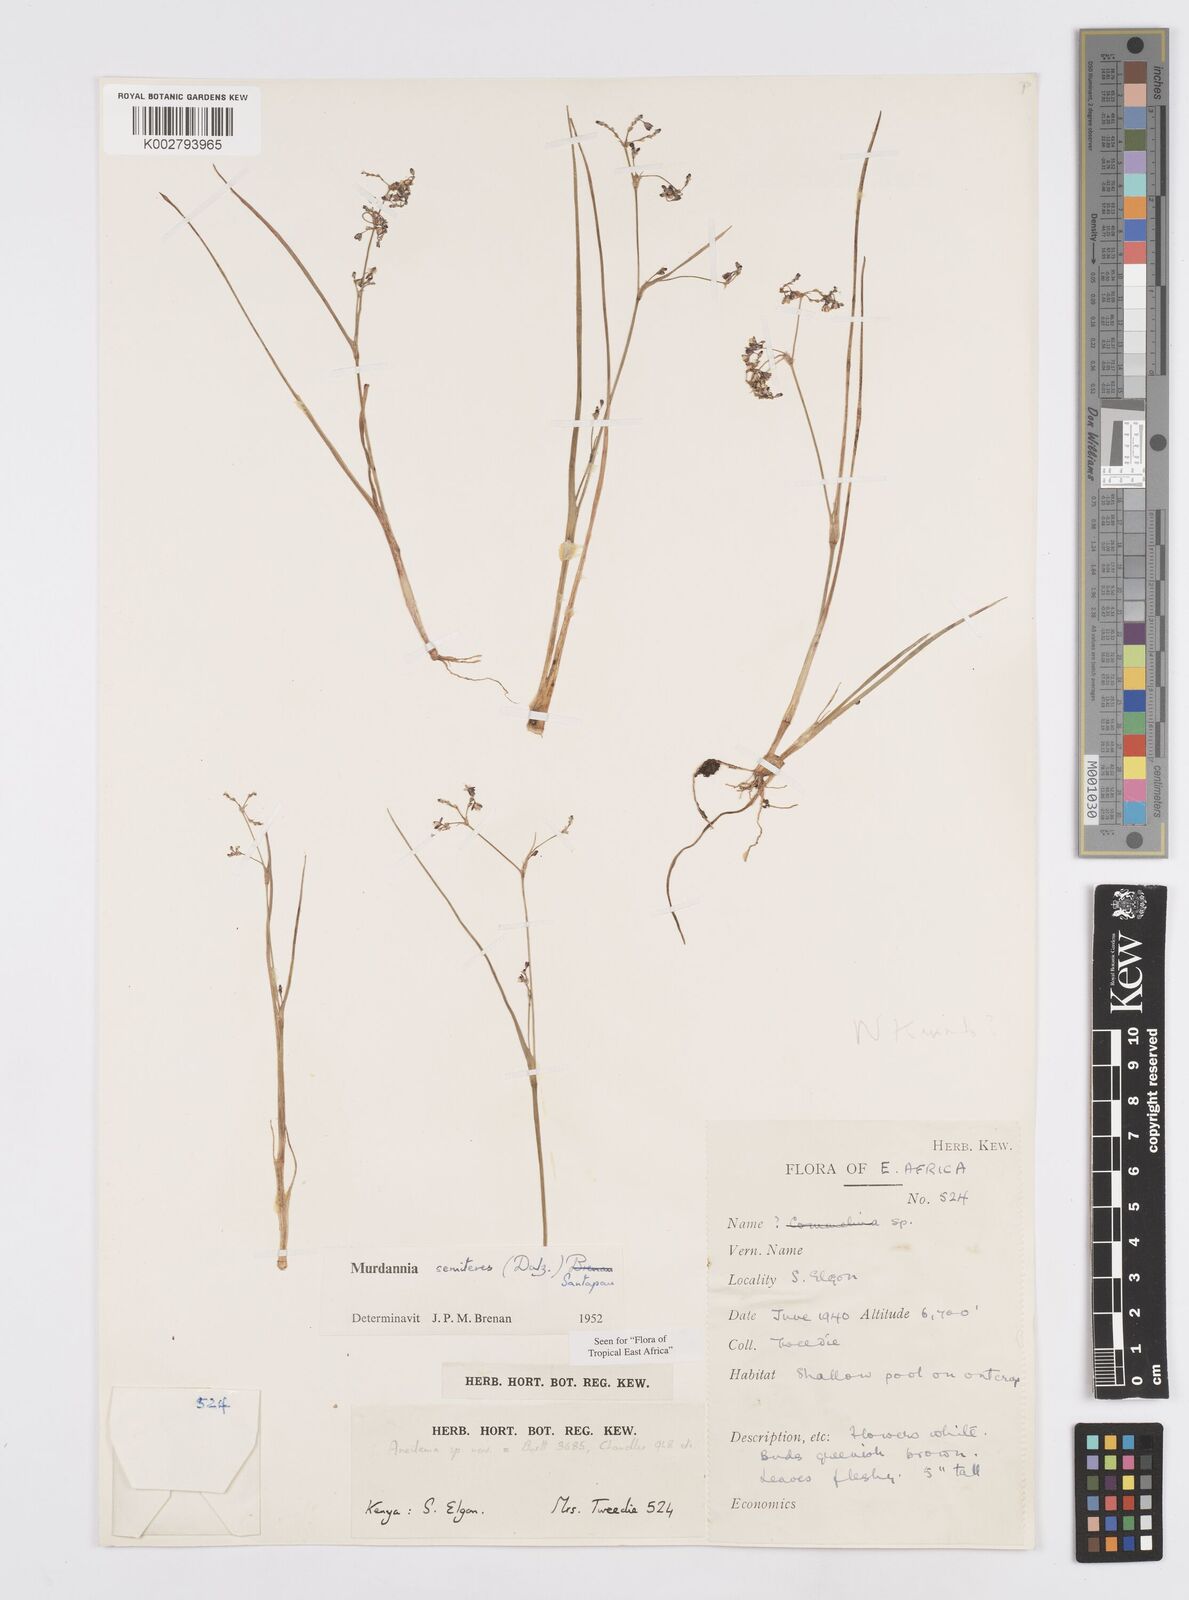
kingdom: Plantae
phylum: Tracheophyta
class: Liliopsida
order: Commelinales
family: Commelinaceae
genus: Murdannia
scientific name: Murdannia semiteres
